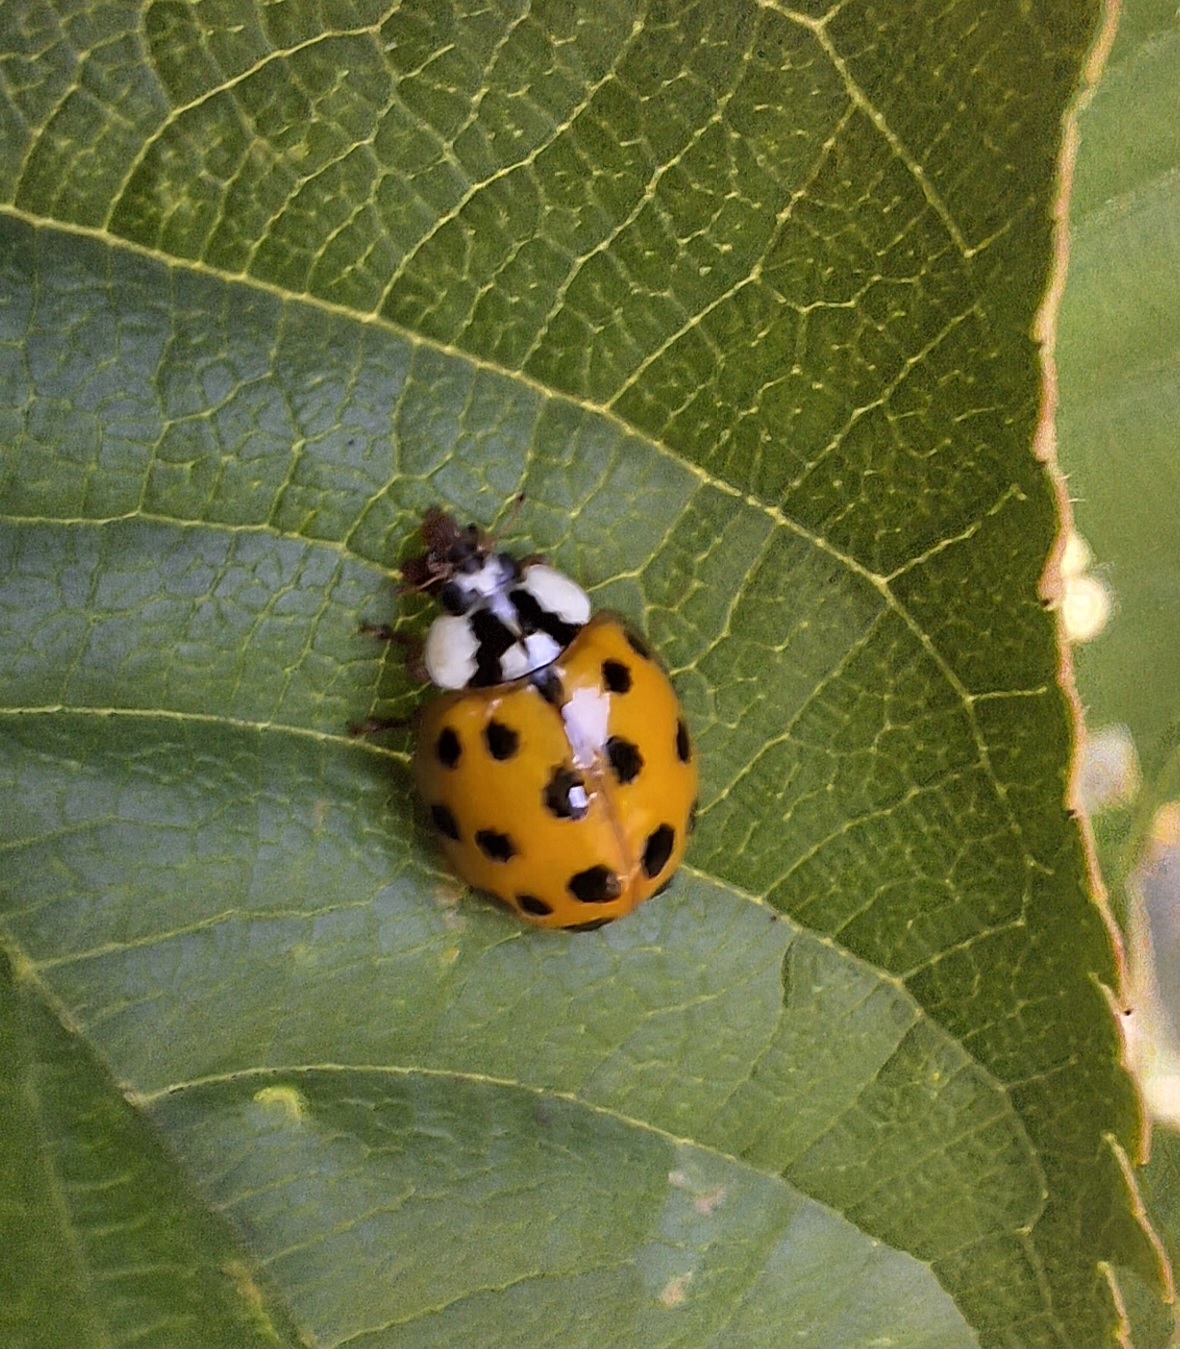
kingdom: Animalia
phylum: Arthropoda
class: Insecta
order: Coleoptera
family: Coccinellidae
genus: Harmonia
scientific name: Harmonia axyridis
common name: Harlekinmariehøne
